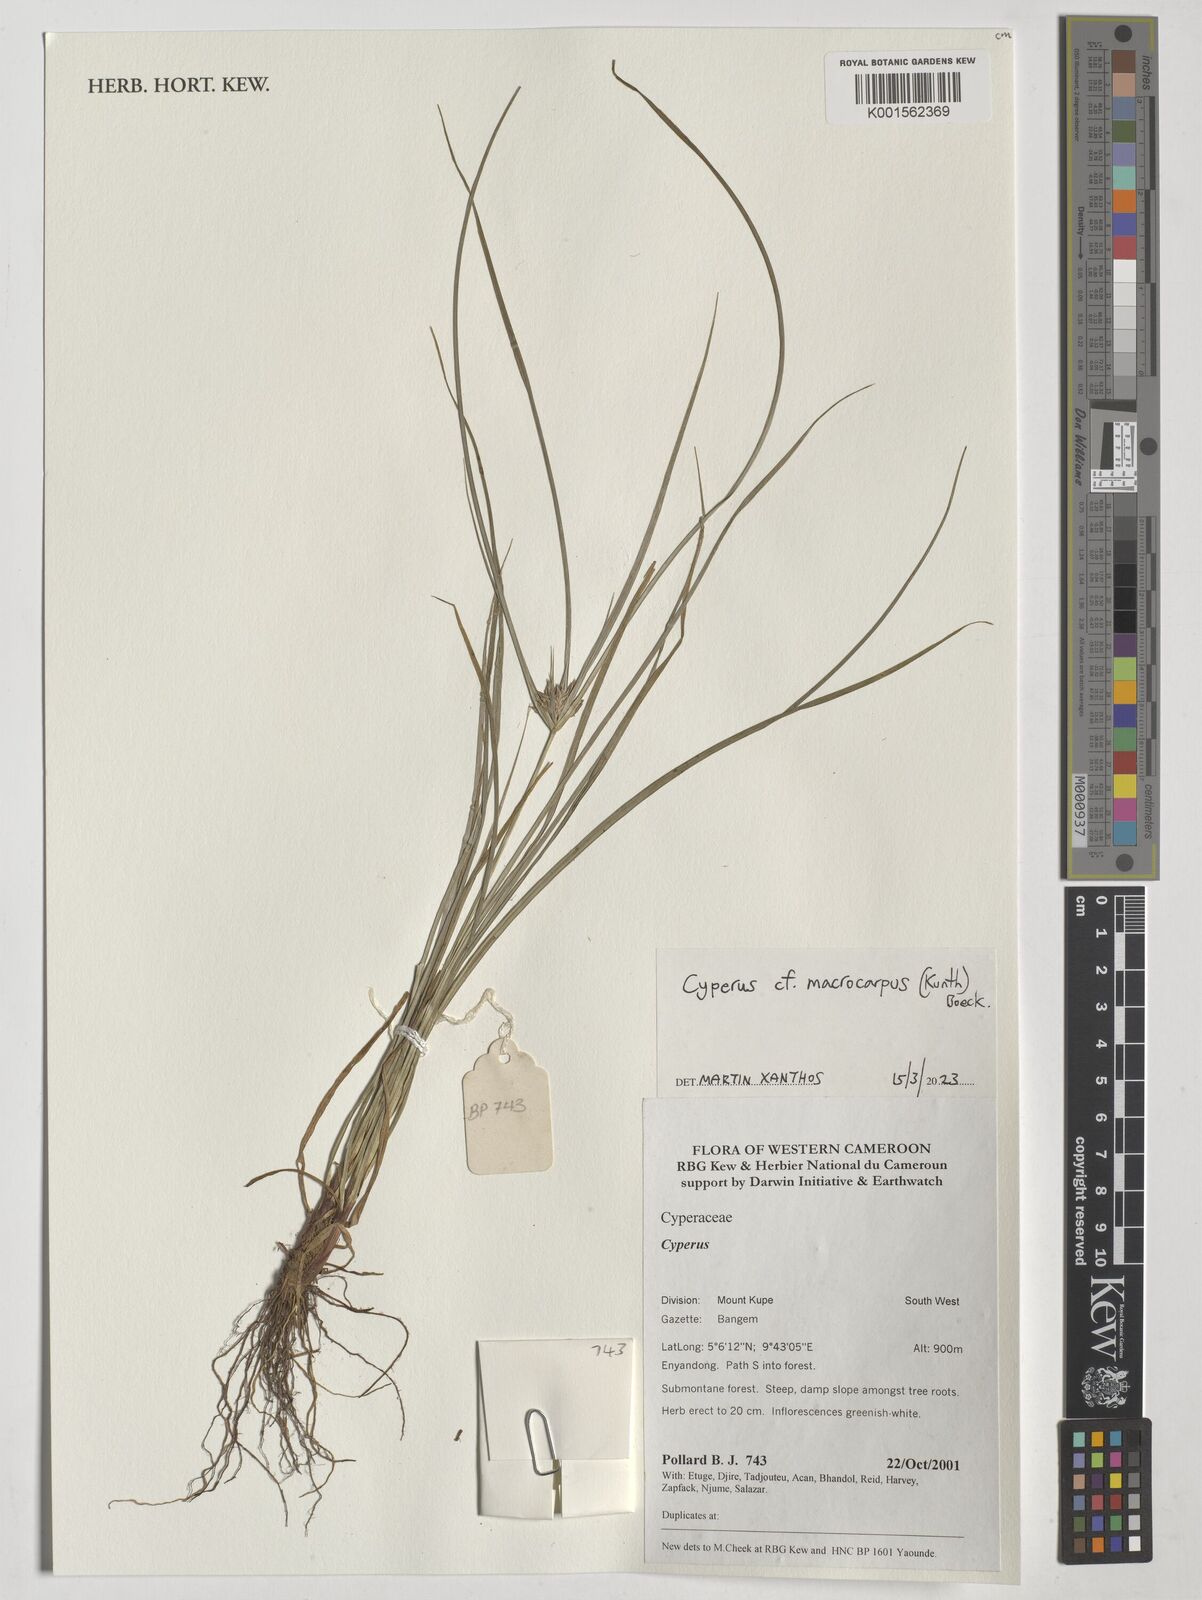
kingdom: Plantae
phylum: Tracheophyta
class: Liliopsida
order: Poales
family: Cyperaceae
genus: Cyperus
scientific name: Cyperus macrocarpus
